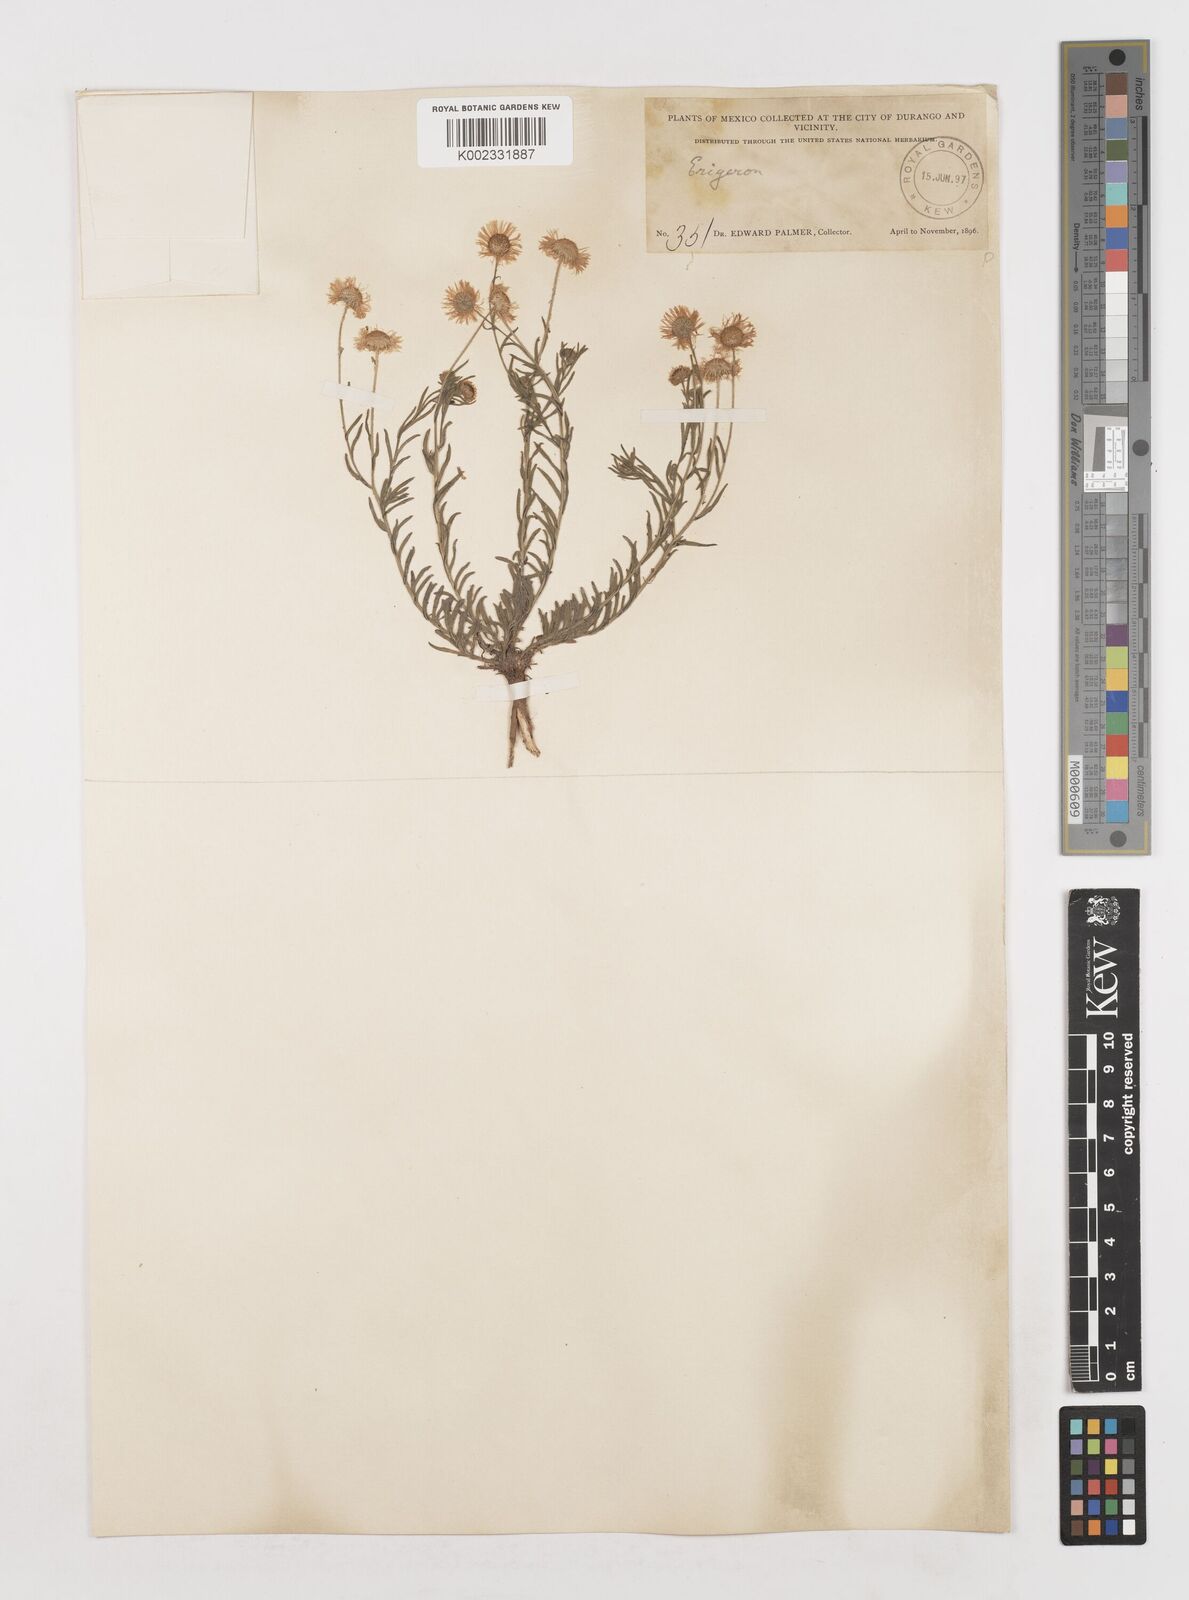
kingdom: Plantae
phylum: Tracheophyta
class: Magnoliopsida
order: Asterales
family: Asteraceae
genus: Erigeron
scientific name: Erigeron
